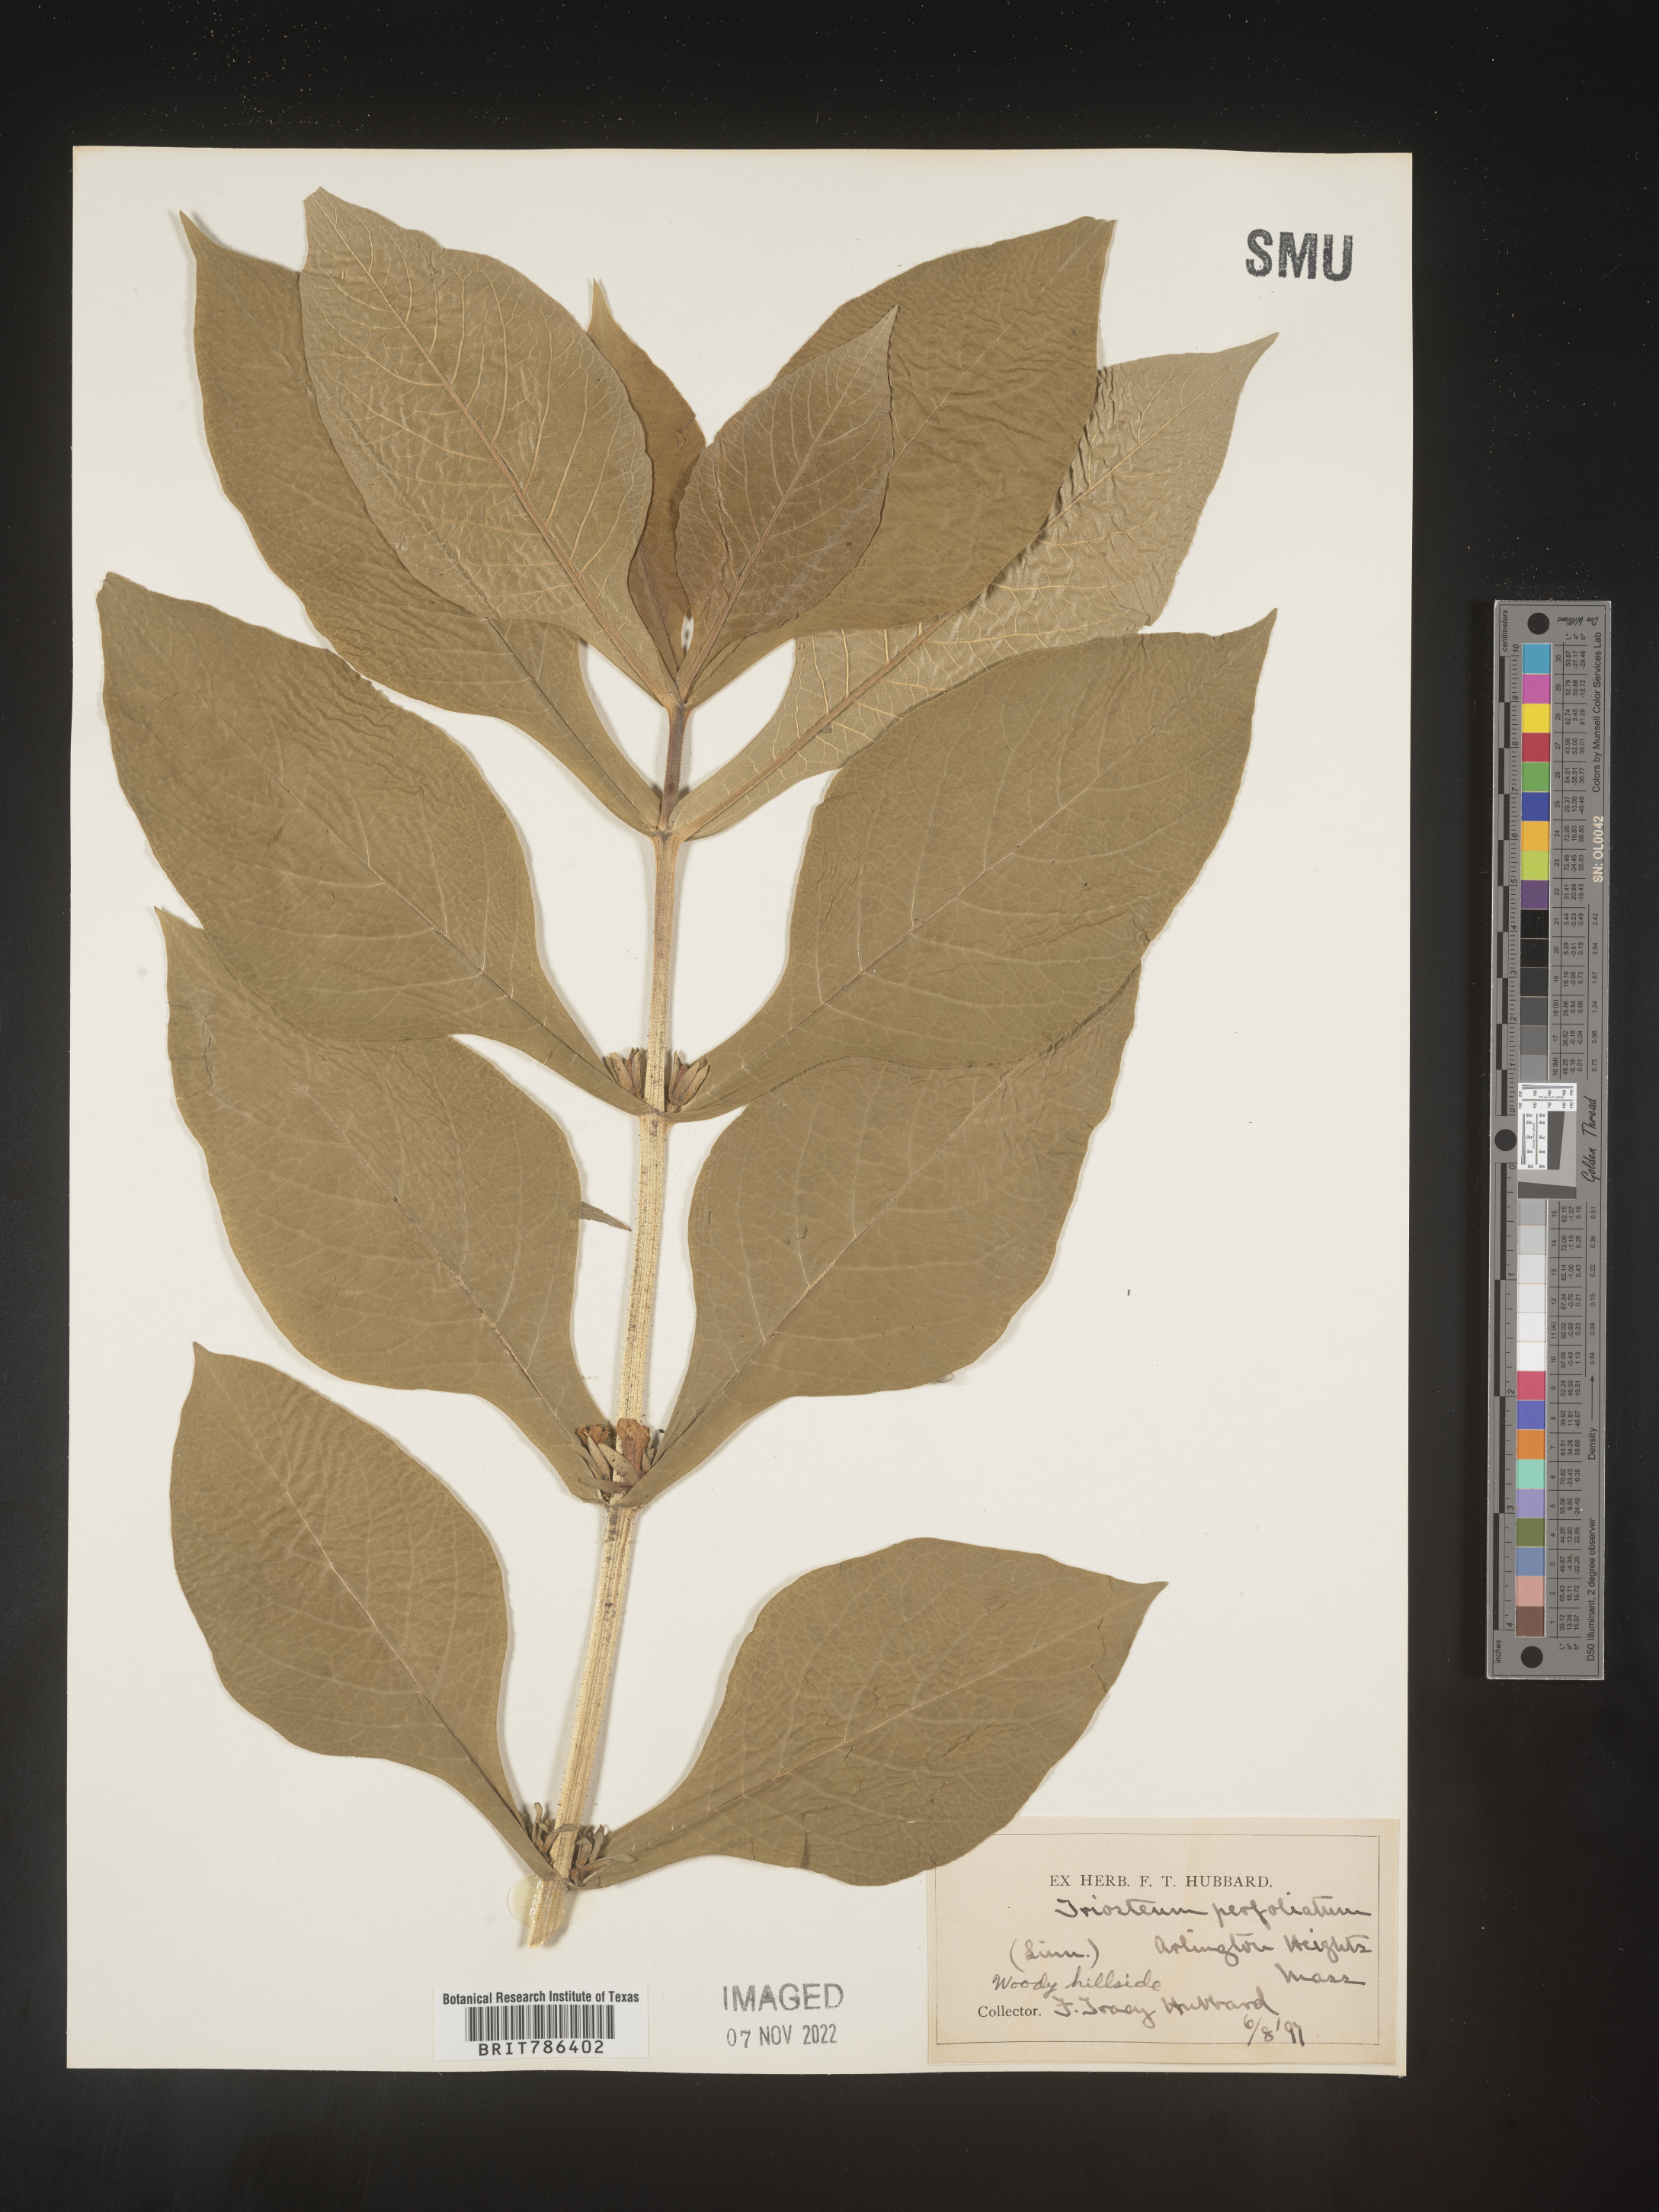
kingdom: Plantae
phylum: Tracheophyta
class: Magnoliopsida
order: Dipsacales
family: Caprifoliaceae
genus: Triosteum
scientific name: Triosteum perfoliatum
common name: Common horse-gentian
